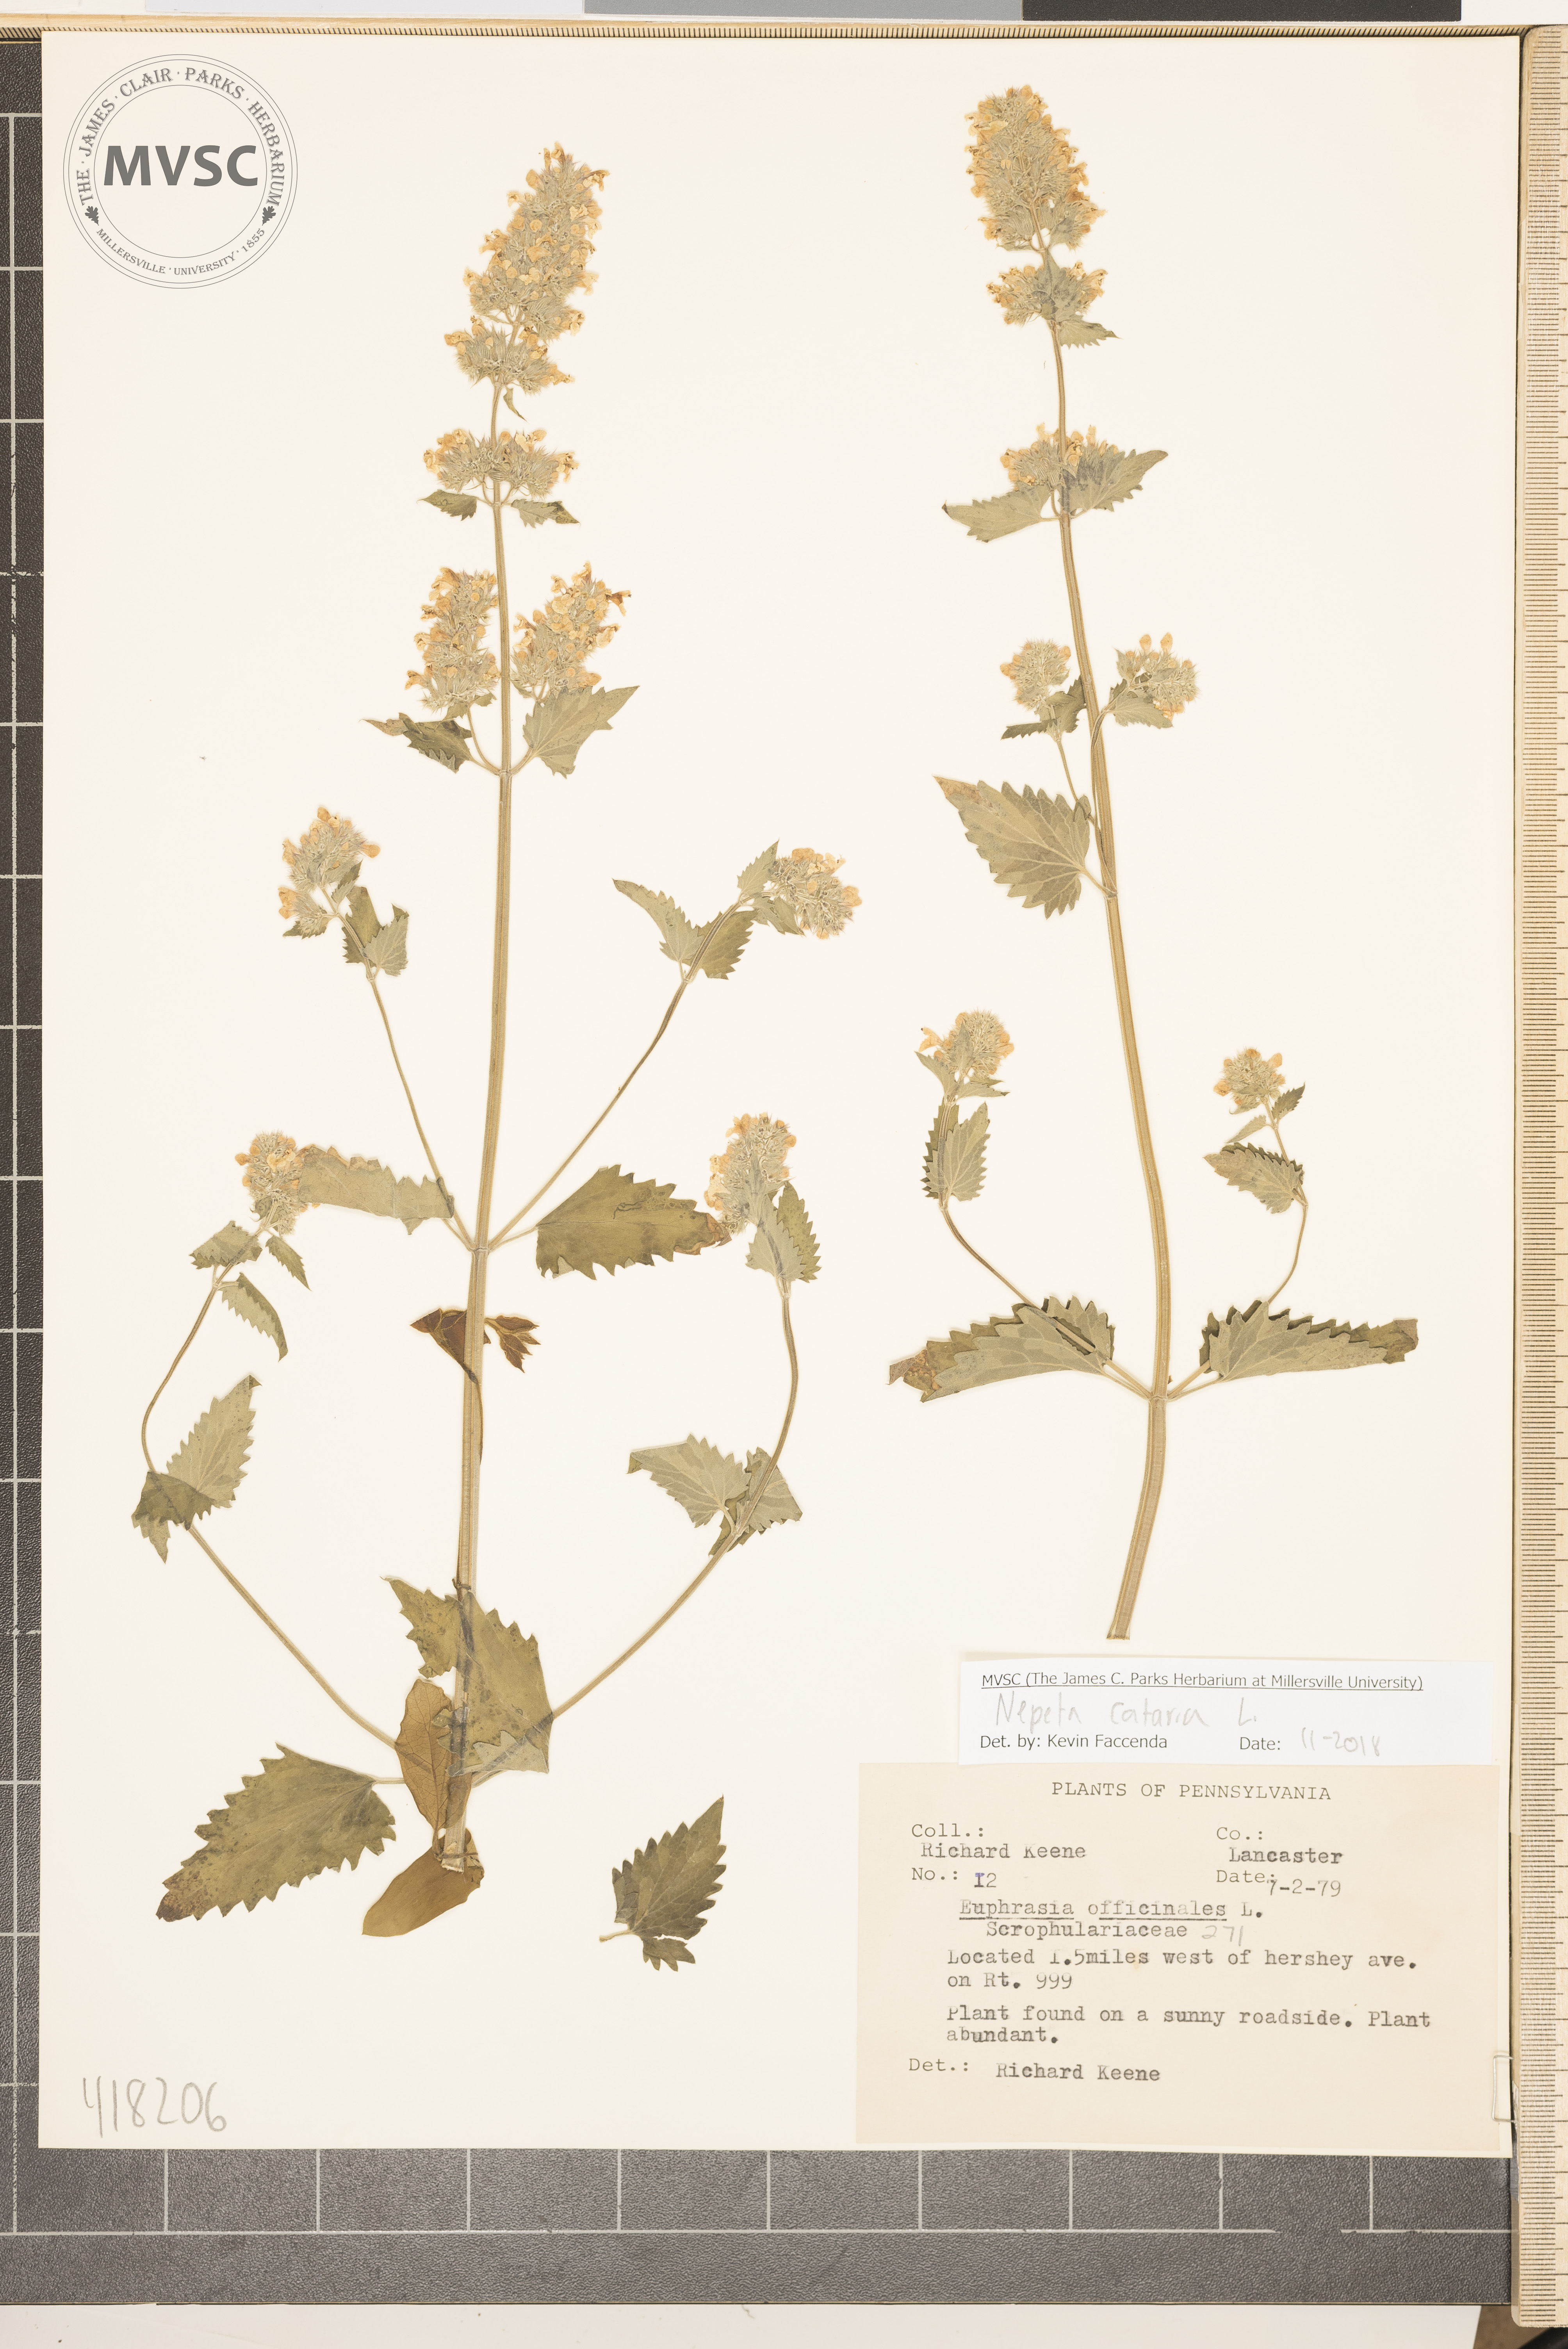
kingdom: Plantae
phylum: Tracheophyta
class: Magnoliopsida
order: Lamiales
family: Lamiaceae
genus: Nepeta
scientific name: Nepeta cataria
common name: Catnip
